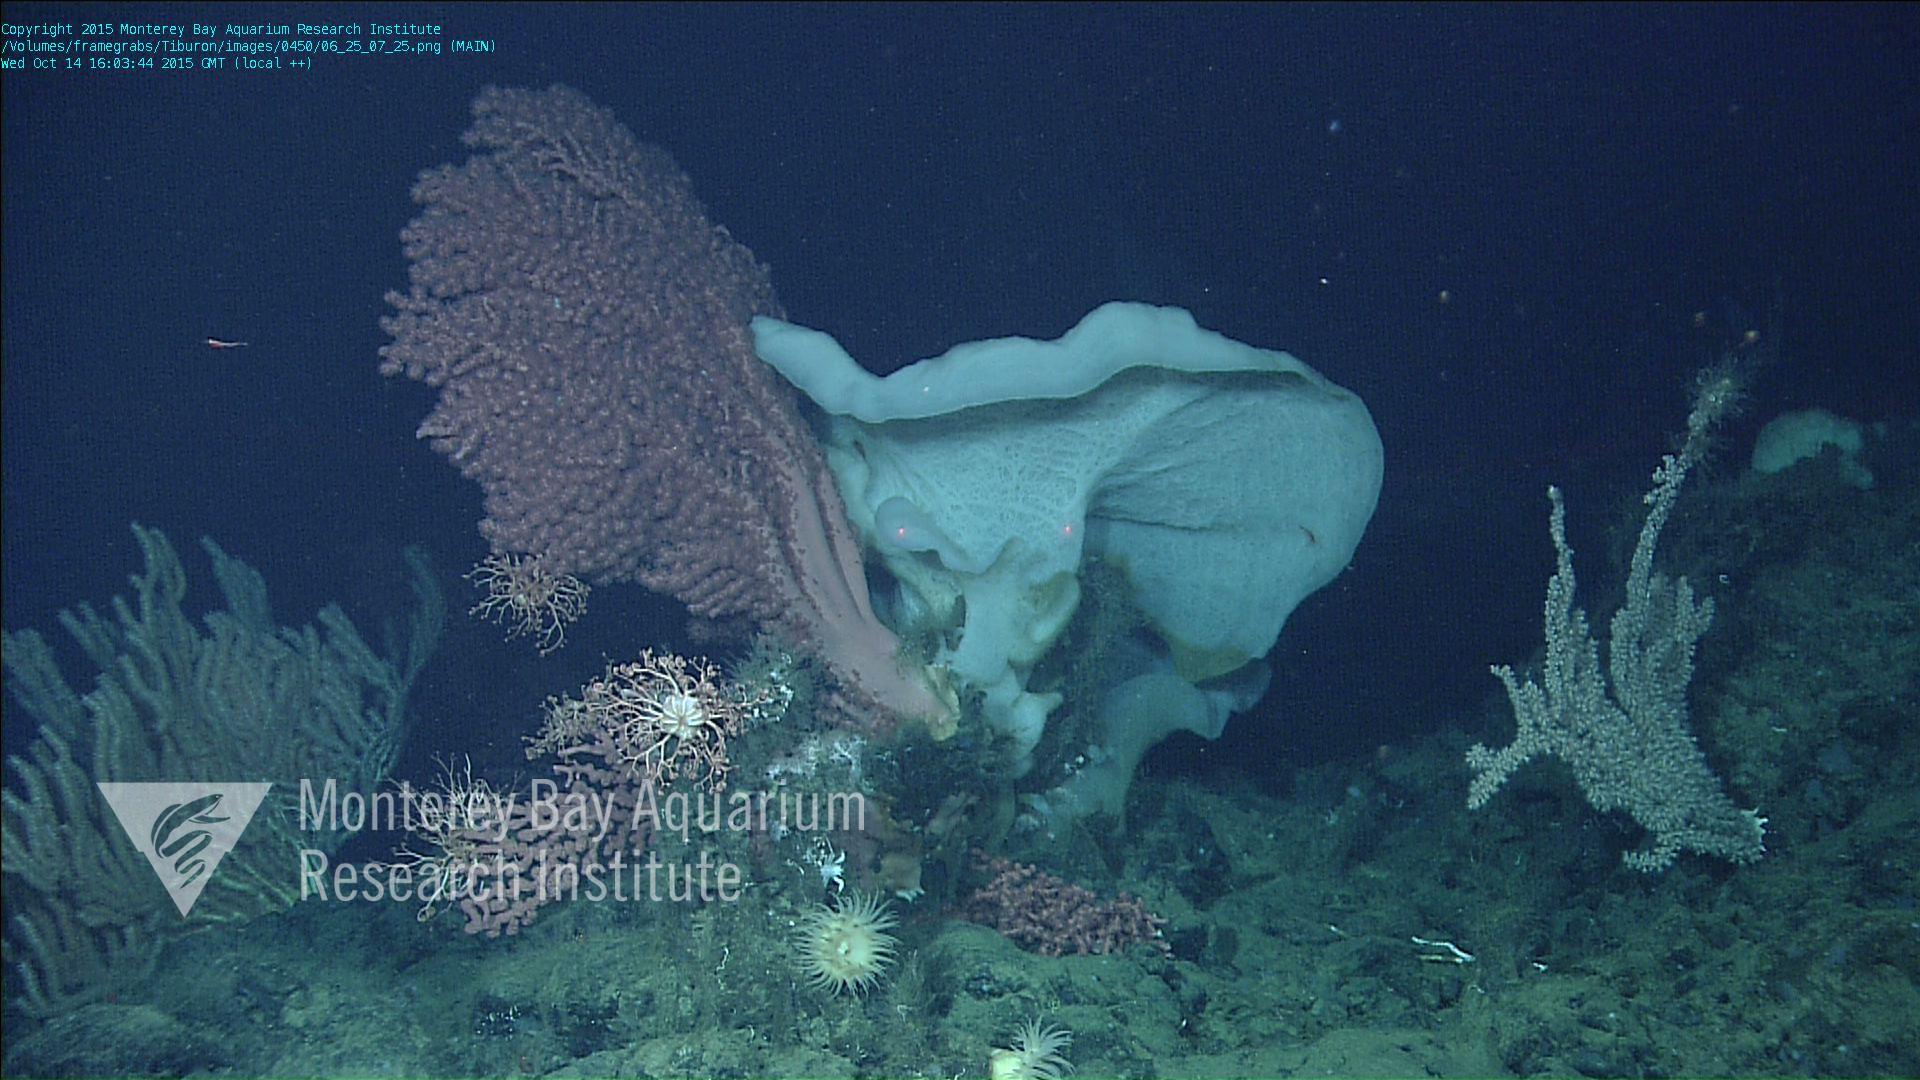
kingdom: Animalia
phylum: Porifera
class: Hexactinellida
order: Sceptrulophora
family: Euretidae
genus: Chonelasma
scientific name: Chonelasma
